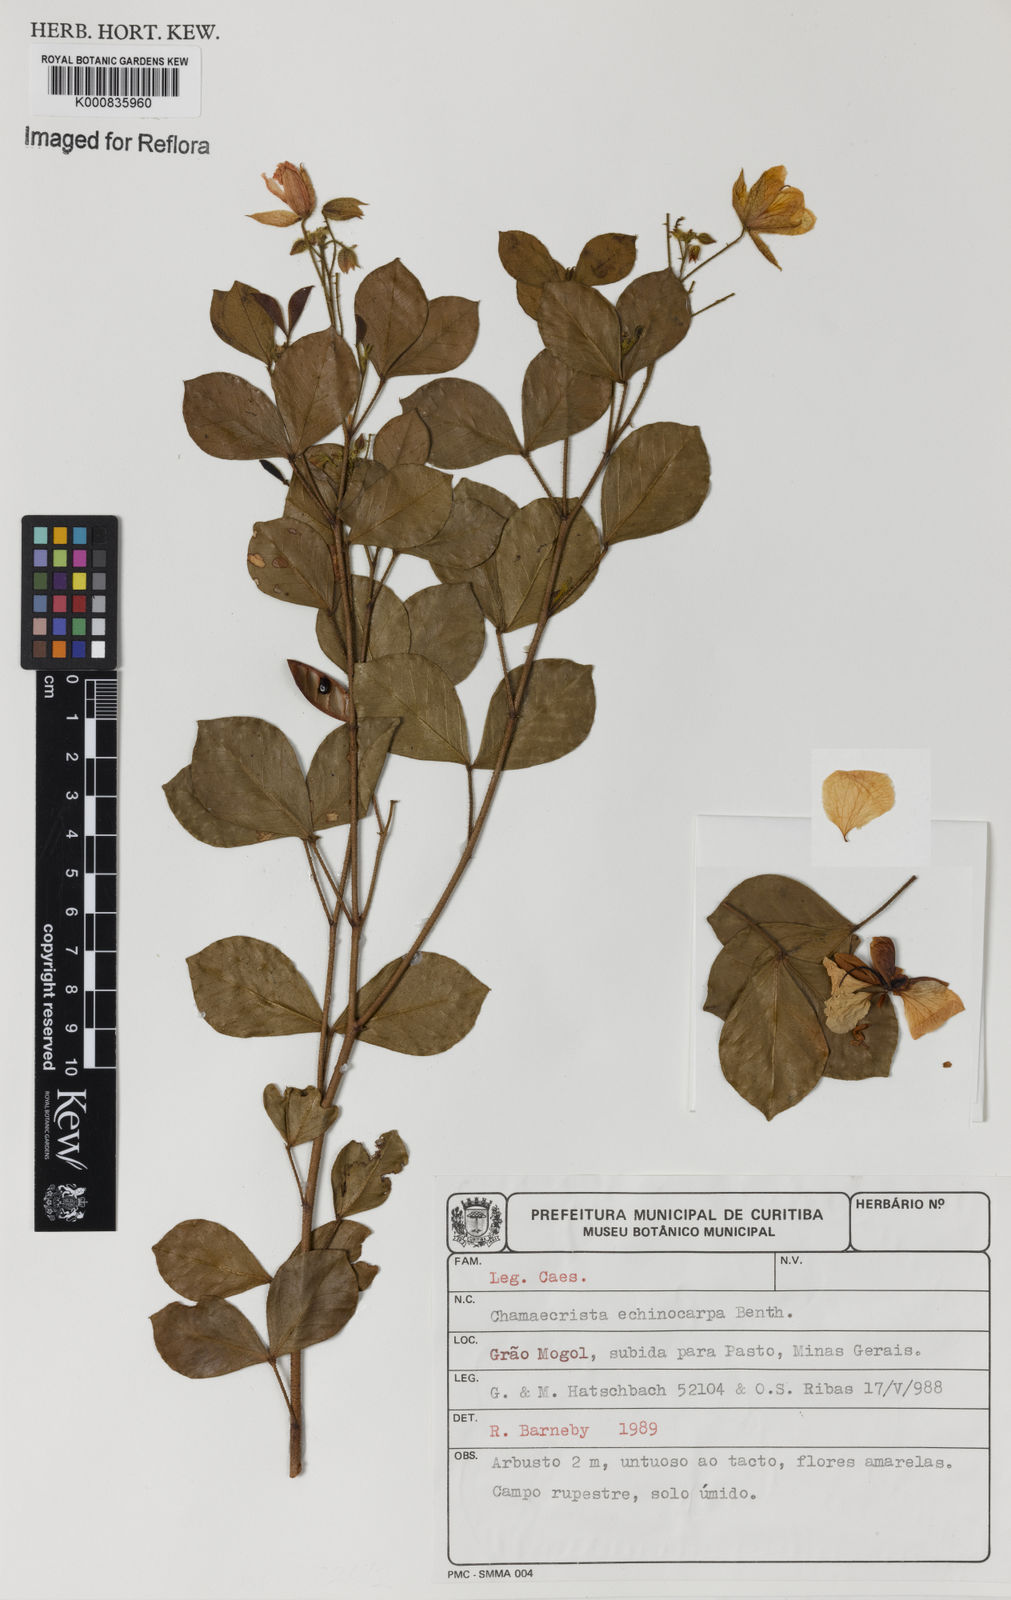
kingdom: Plantae
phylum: Tracheophyta
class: Magnoliopsida
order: Fabales
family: Fabaceae
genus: Chamaecrista
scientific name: Chamaecrista echinocarpa
